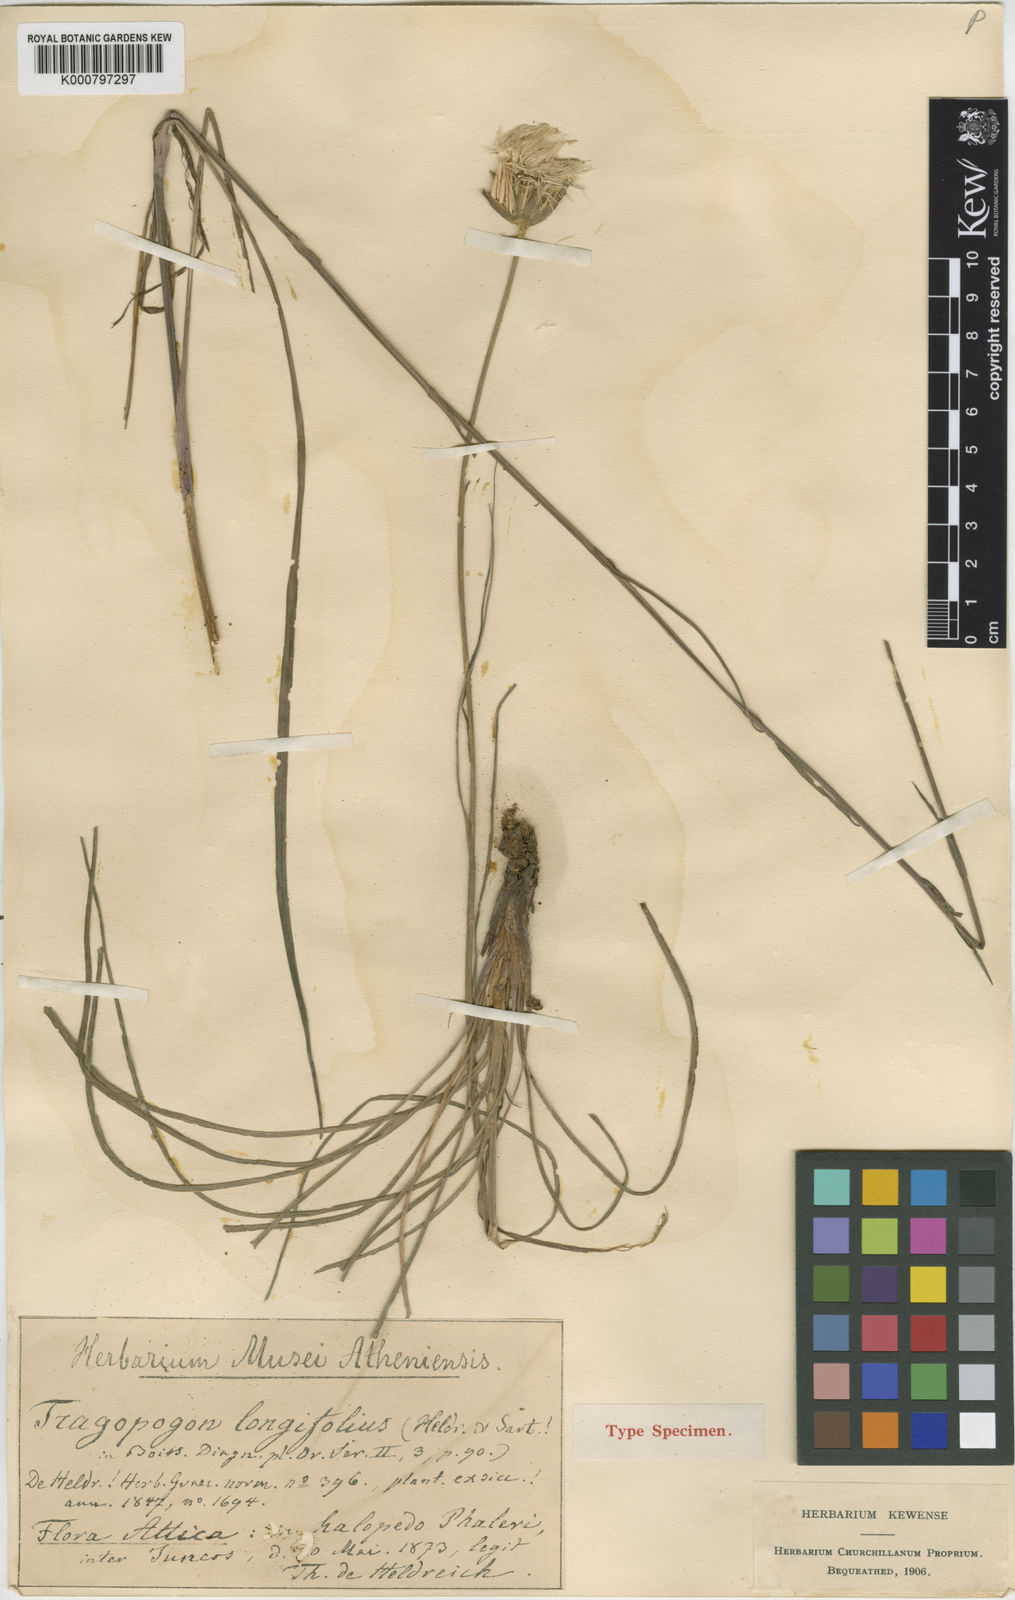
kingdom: Plantae
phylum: Tracheophyta
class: Magnoliopsida
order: Asterales
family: Asteraceae
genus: Tragopogon
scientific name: Tragopogon
